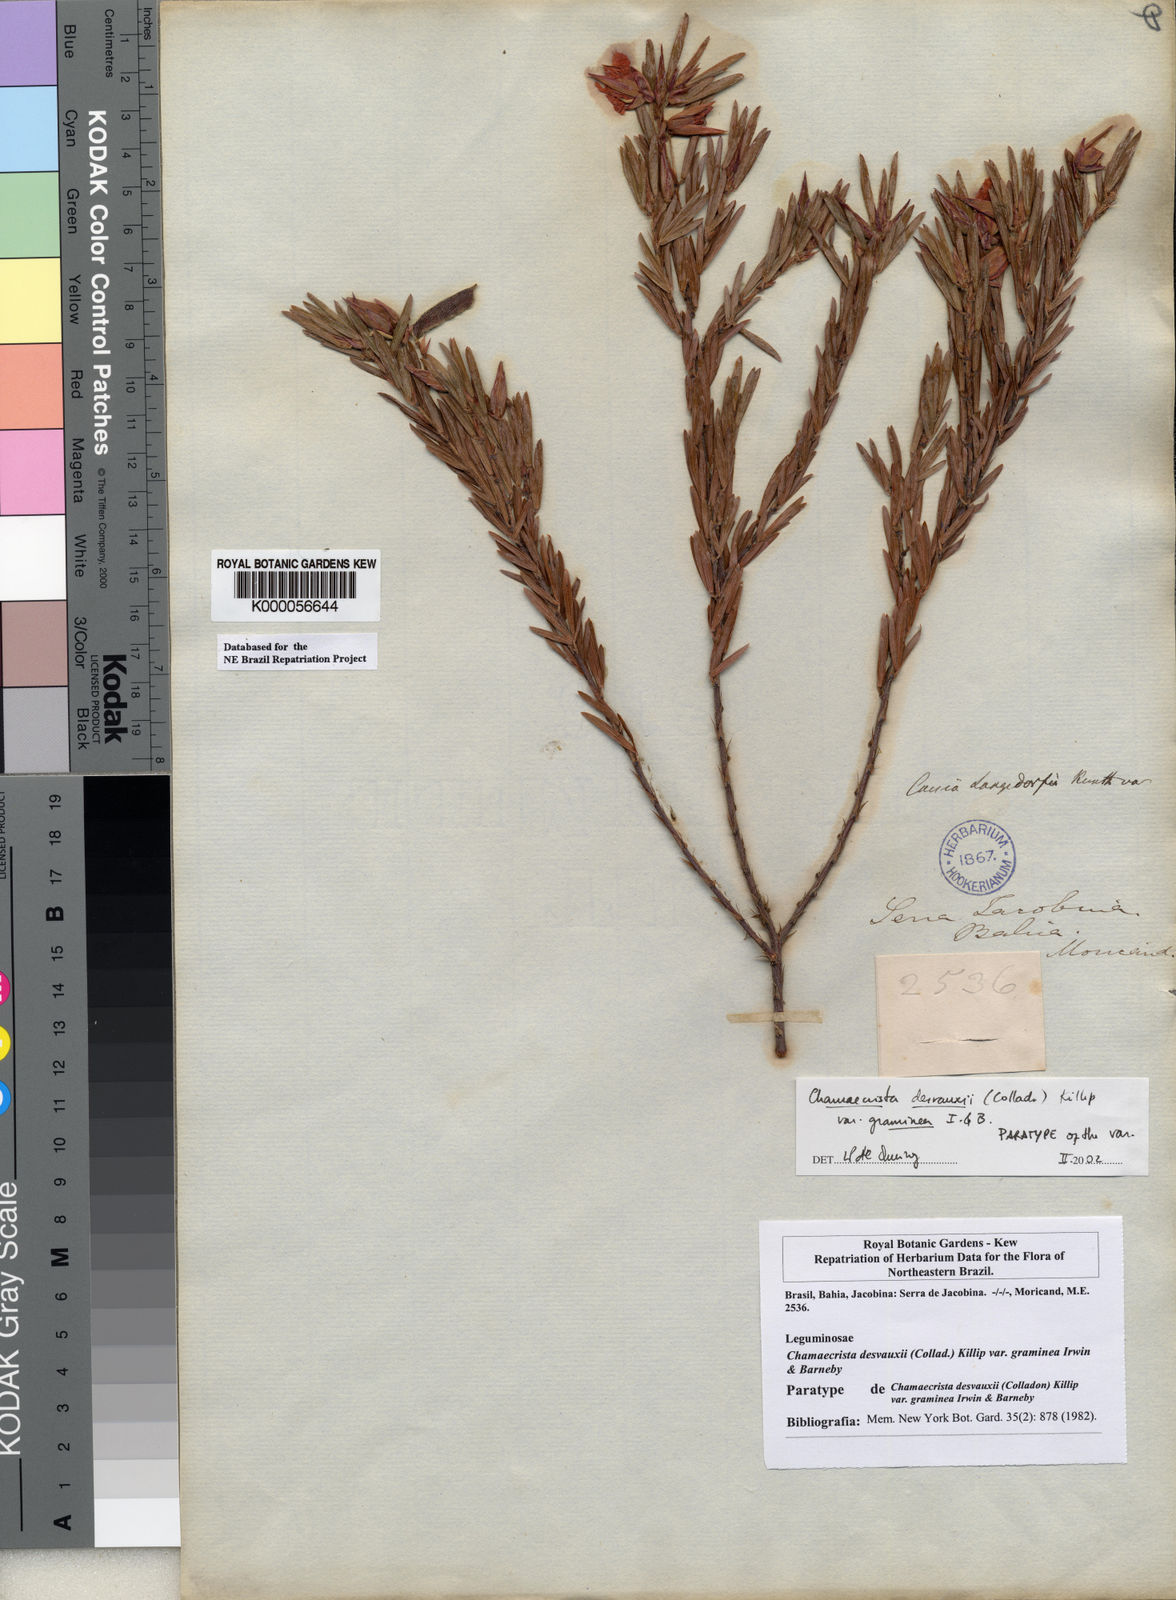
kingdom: Plantae
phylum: Tracheophyta
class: Magnoliopsida
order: Fabales
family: Fabaceae
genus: Chamaecrista
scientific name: Chamaecrista desvauxii
